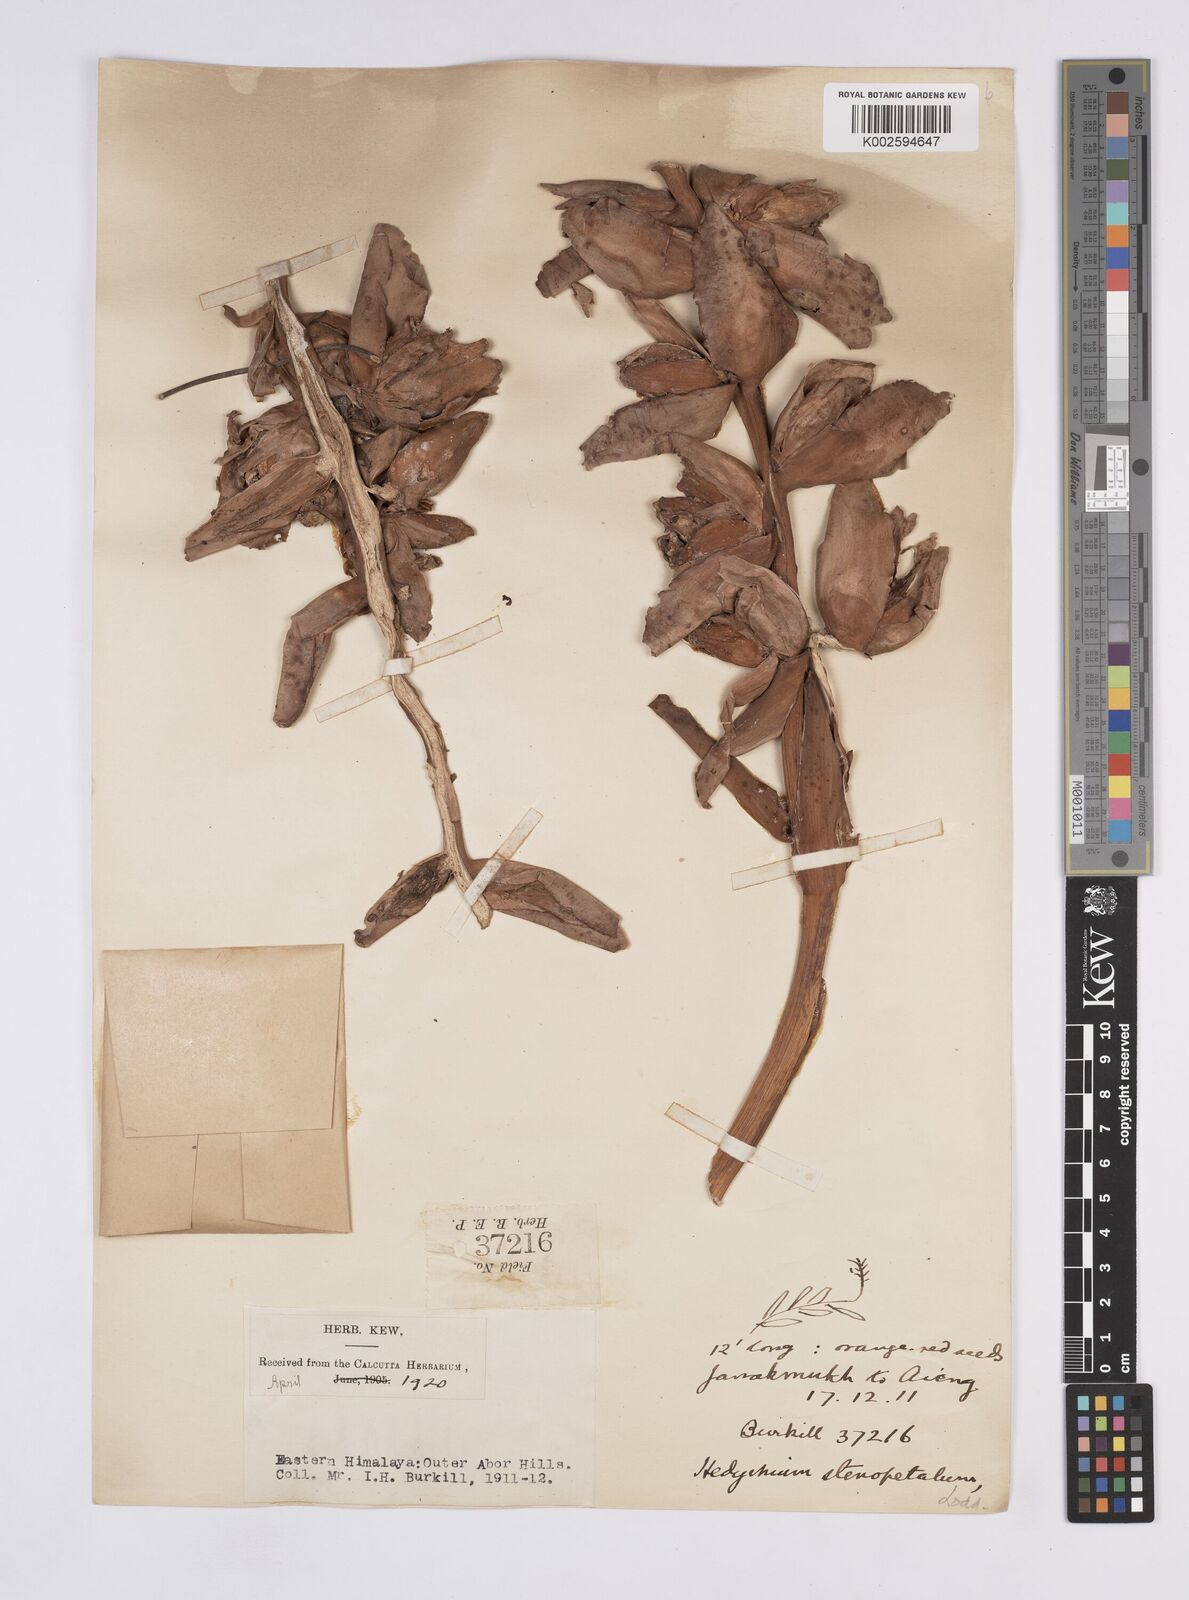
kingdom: Plantae
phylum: Tracheophyta
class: Liliopsida
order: Zingiberales
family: Zingiberaceae
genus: Hedychium
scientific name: Hedychium stenopetalum
